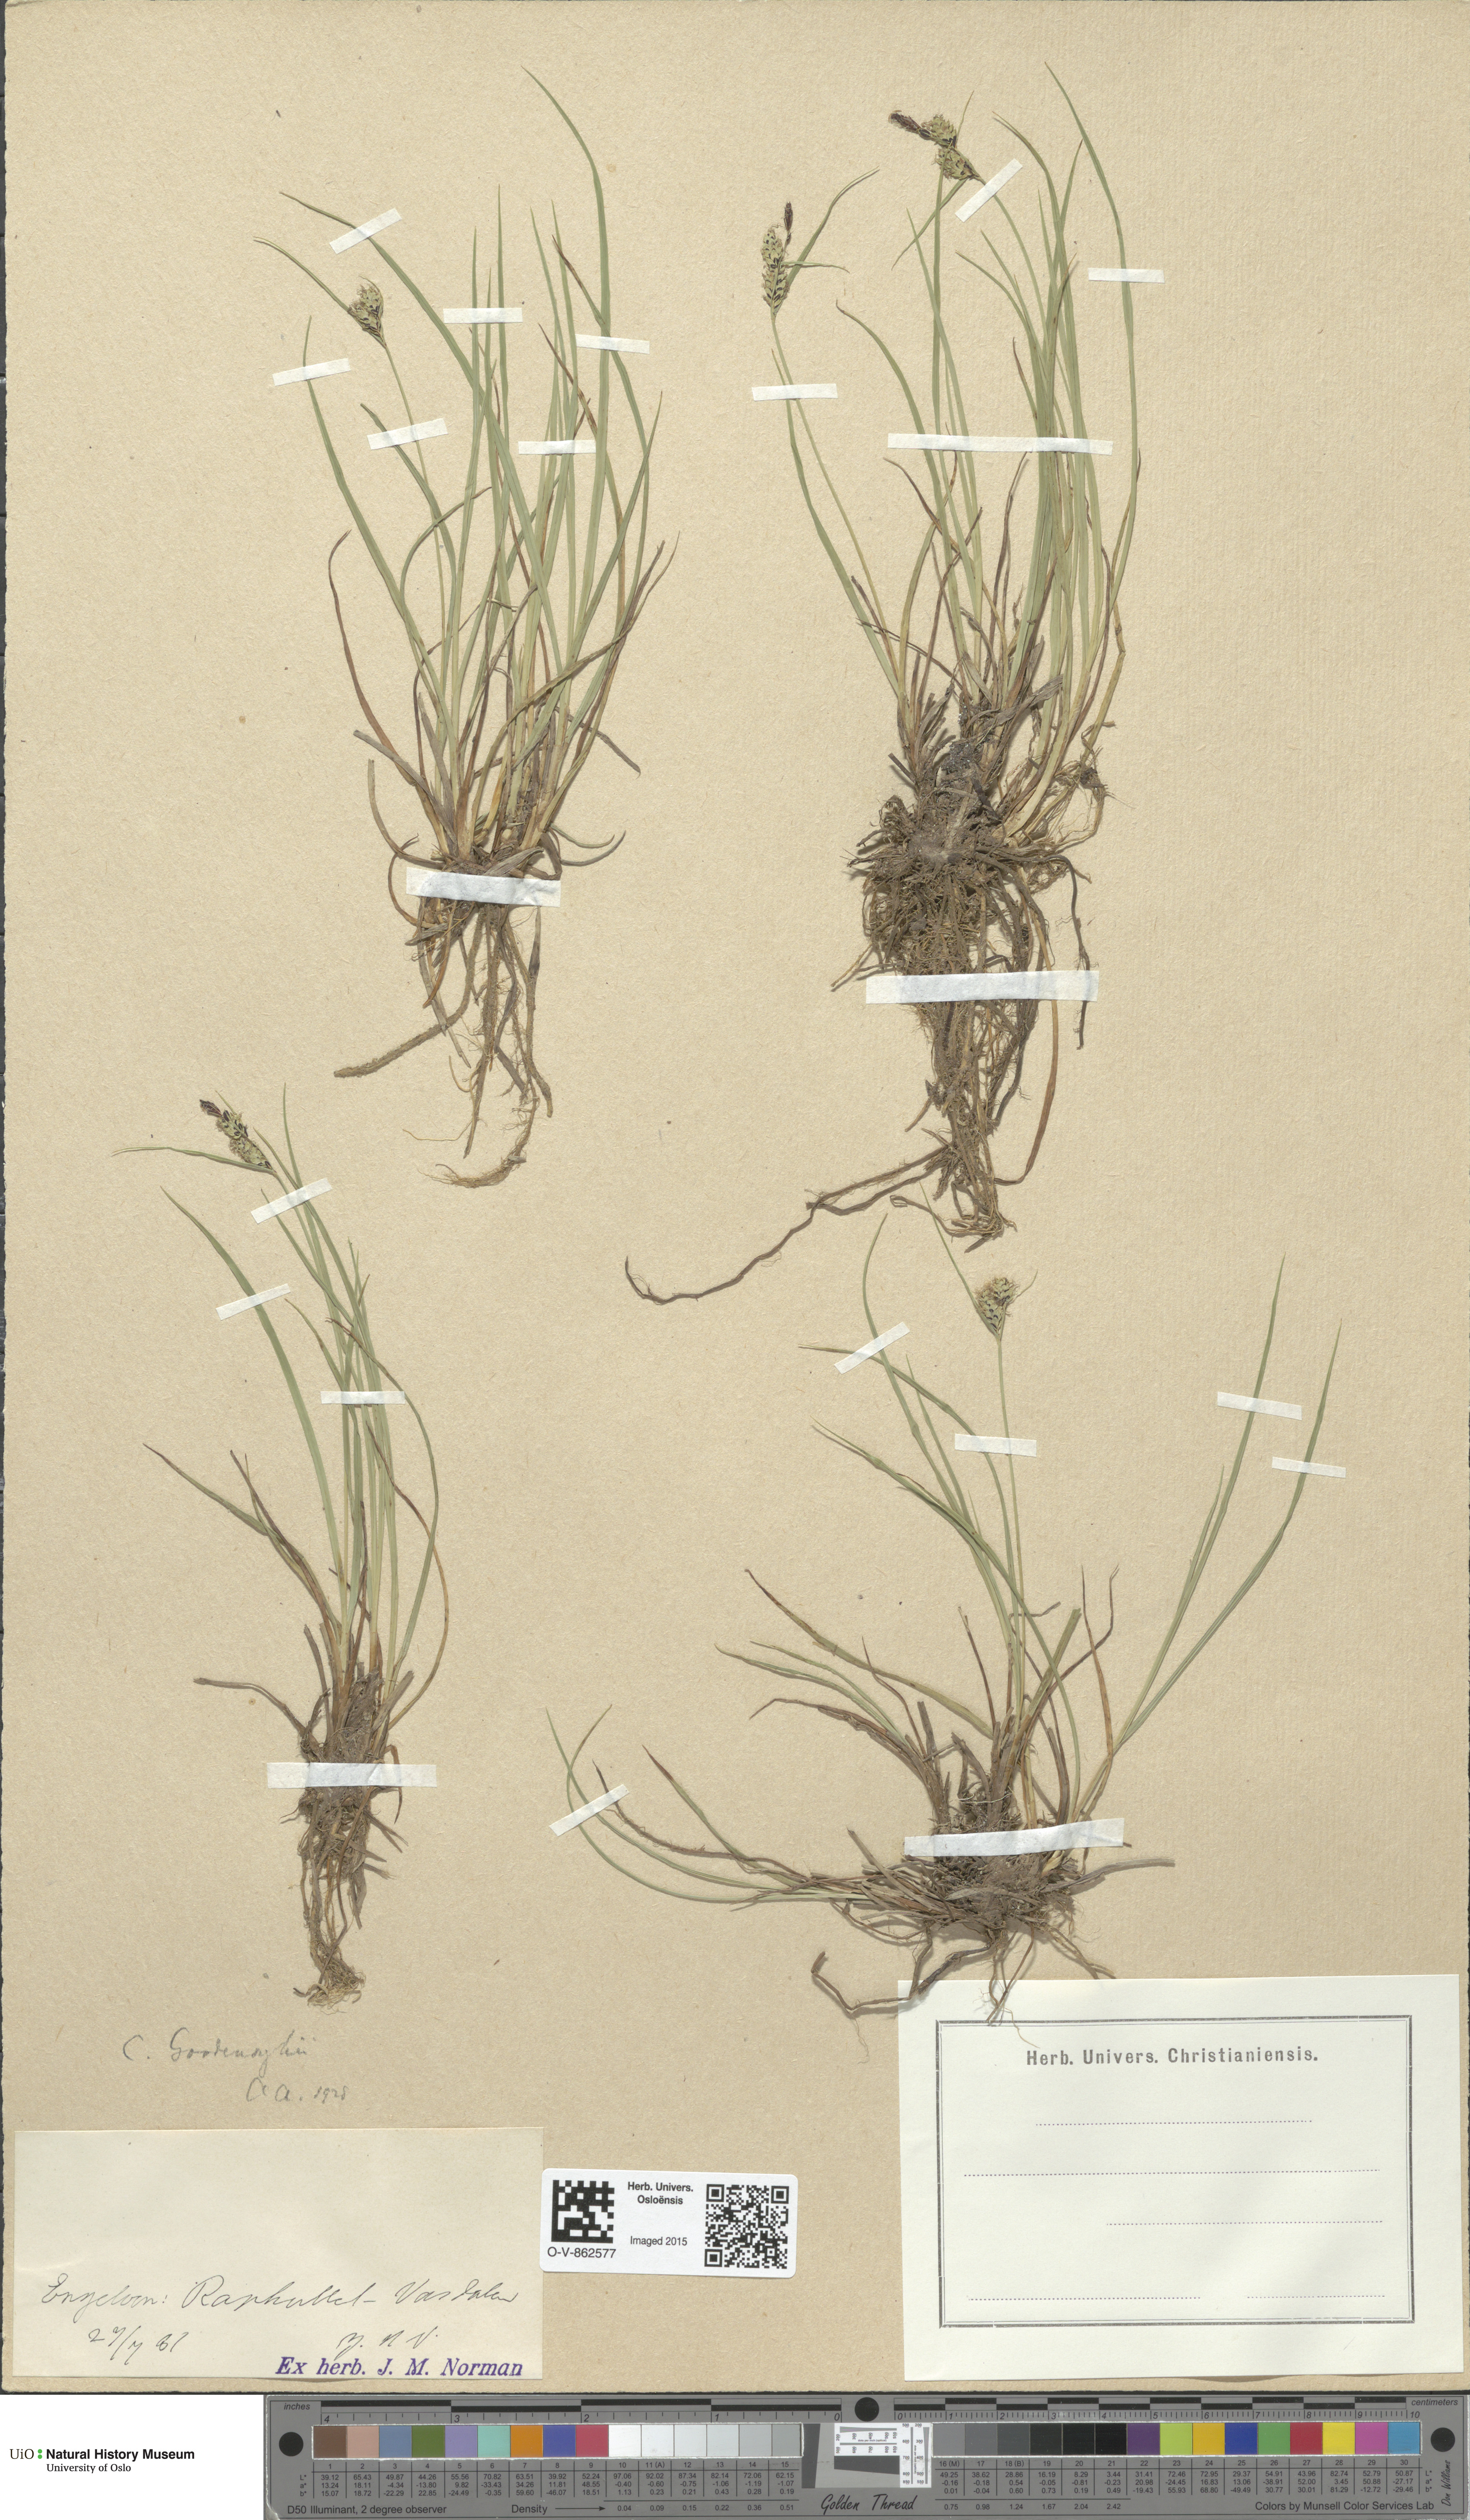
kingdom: Plantae
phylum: Tracheophyta
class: Liliopsida
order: Poales
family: Cyperaceae
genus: Carex
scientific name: Carex nigra
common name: Common sedge
